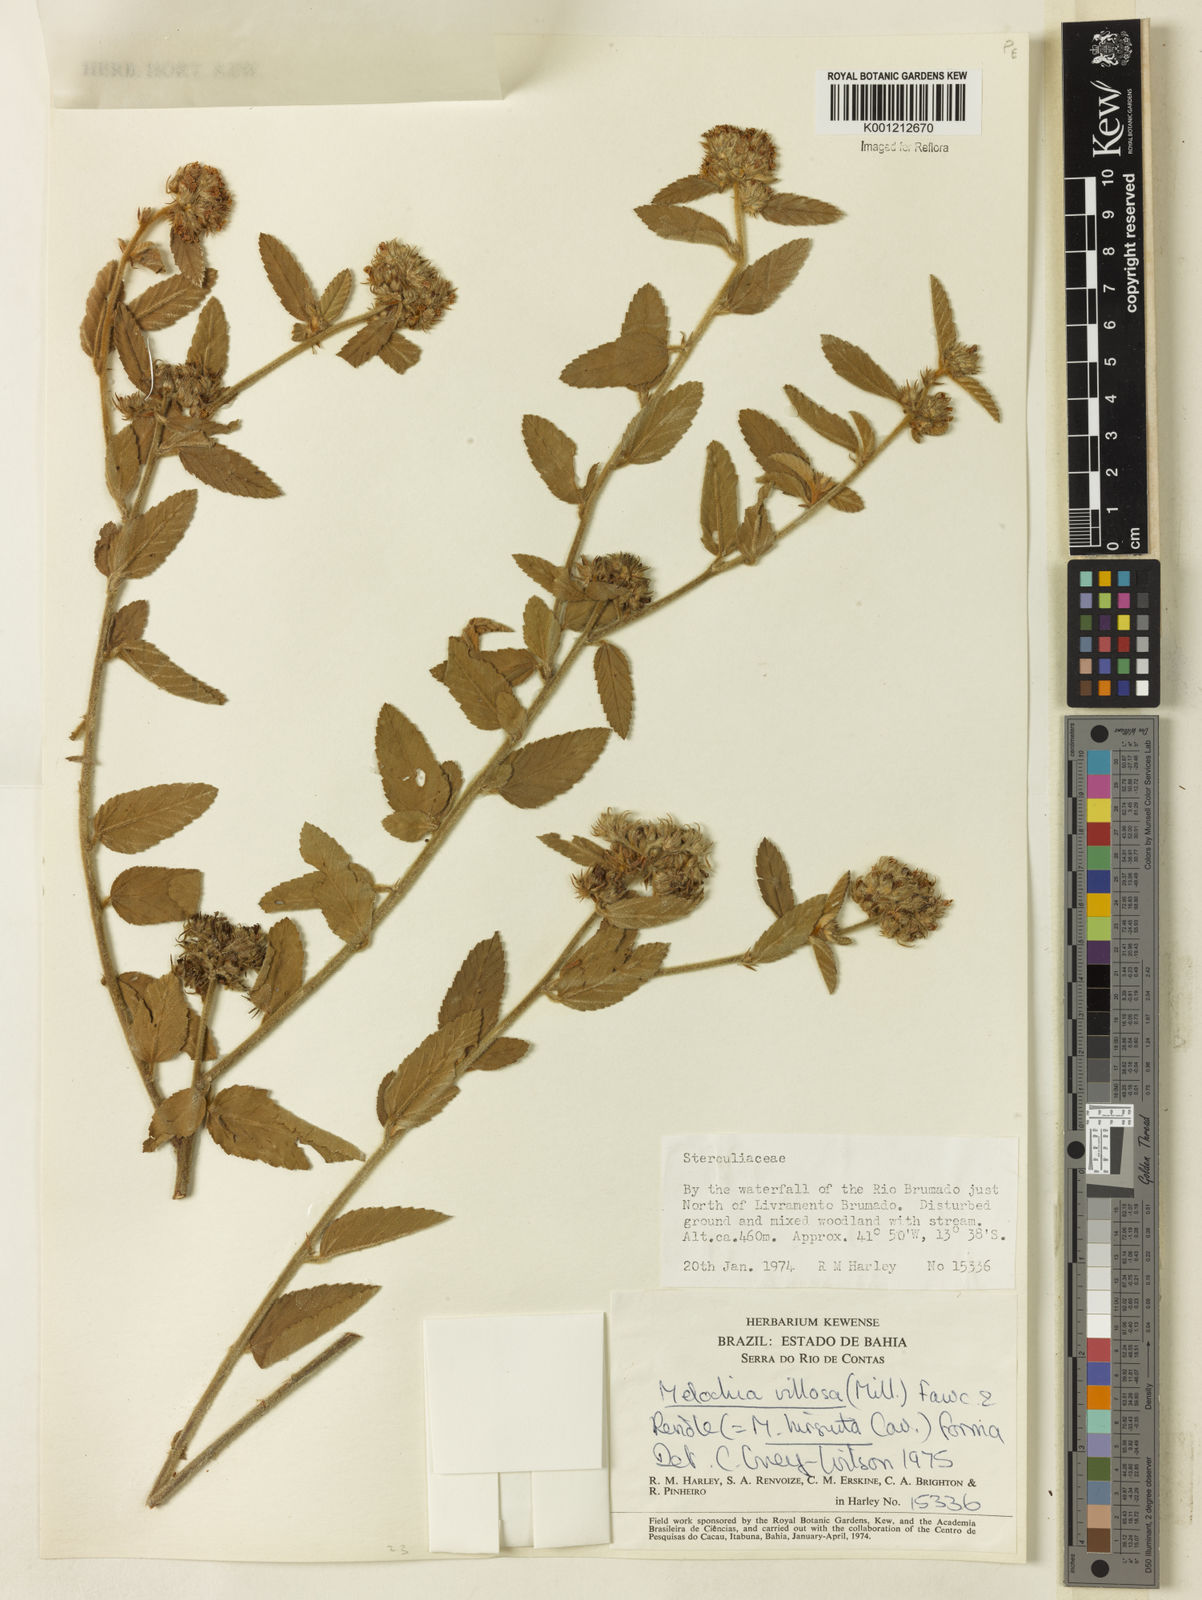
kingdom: Plantae
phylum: Tracheophyta
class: Magnoliopsida
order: Malvales
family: Malvaceae
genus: Melochia
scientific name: Melochia spicata
